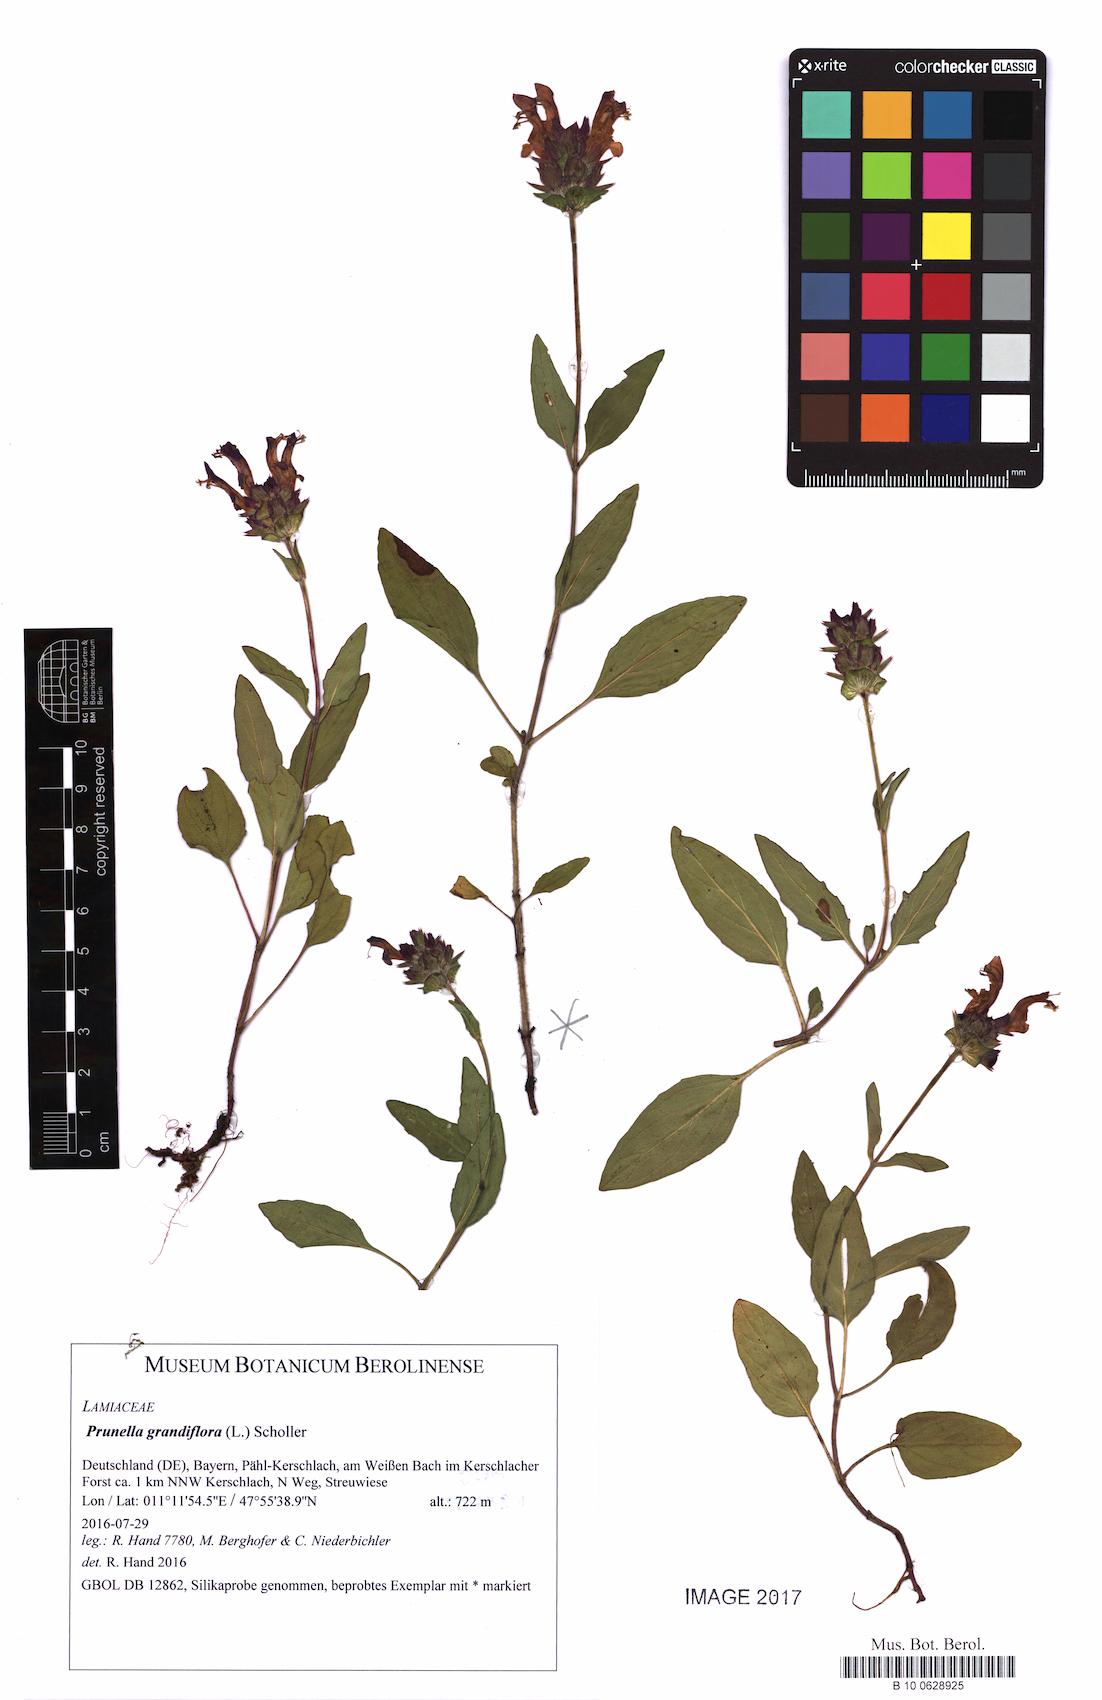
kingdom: Plantae
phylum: Tracheophyta
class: Magnoliopsida
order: Lamiales
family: Lamiaceae
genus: Prunella
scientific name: Prunella grandiflora
